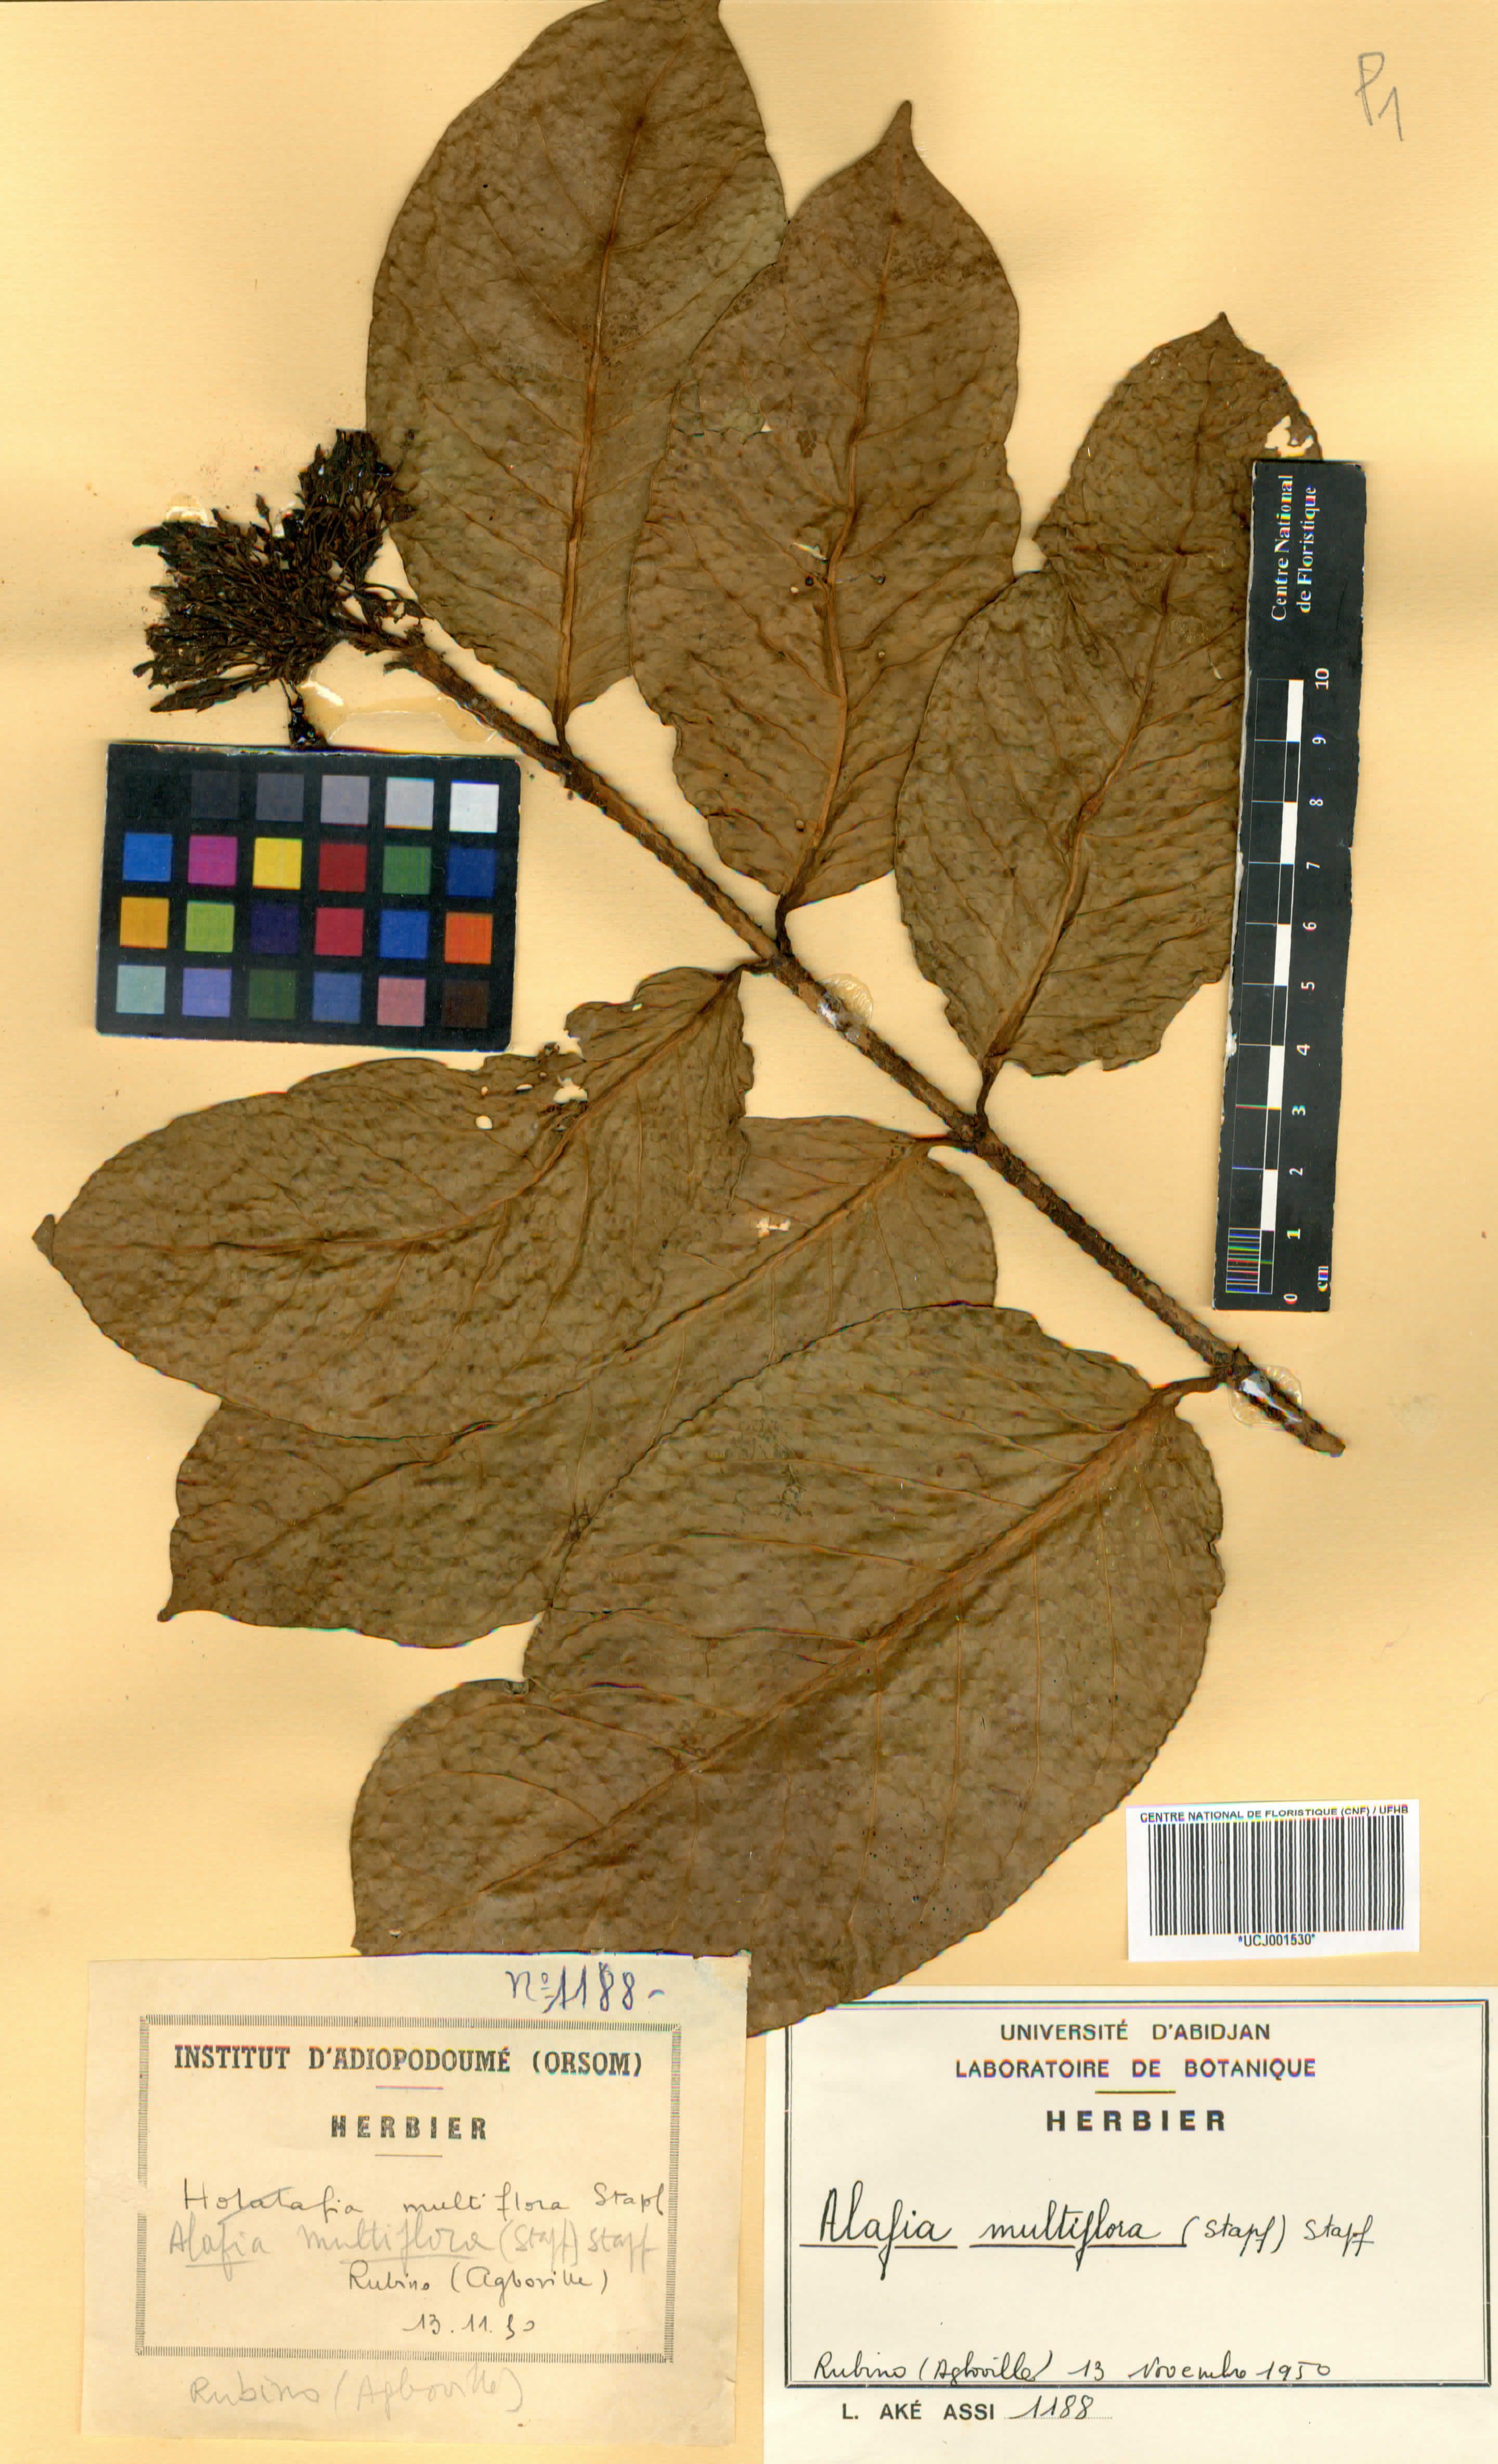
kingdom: Plantae
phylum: Tracheophyta
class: Magnoliopsida
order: Gentianales
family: Apocynaceae
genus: Alafia
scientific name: Alafia multiflora
